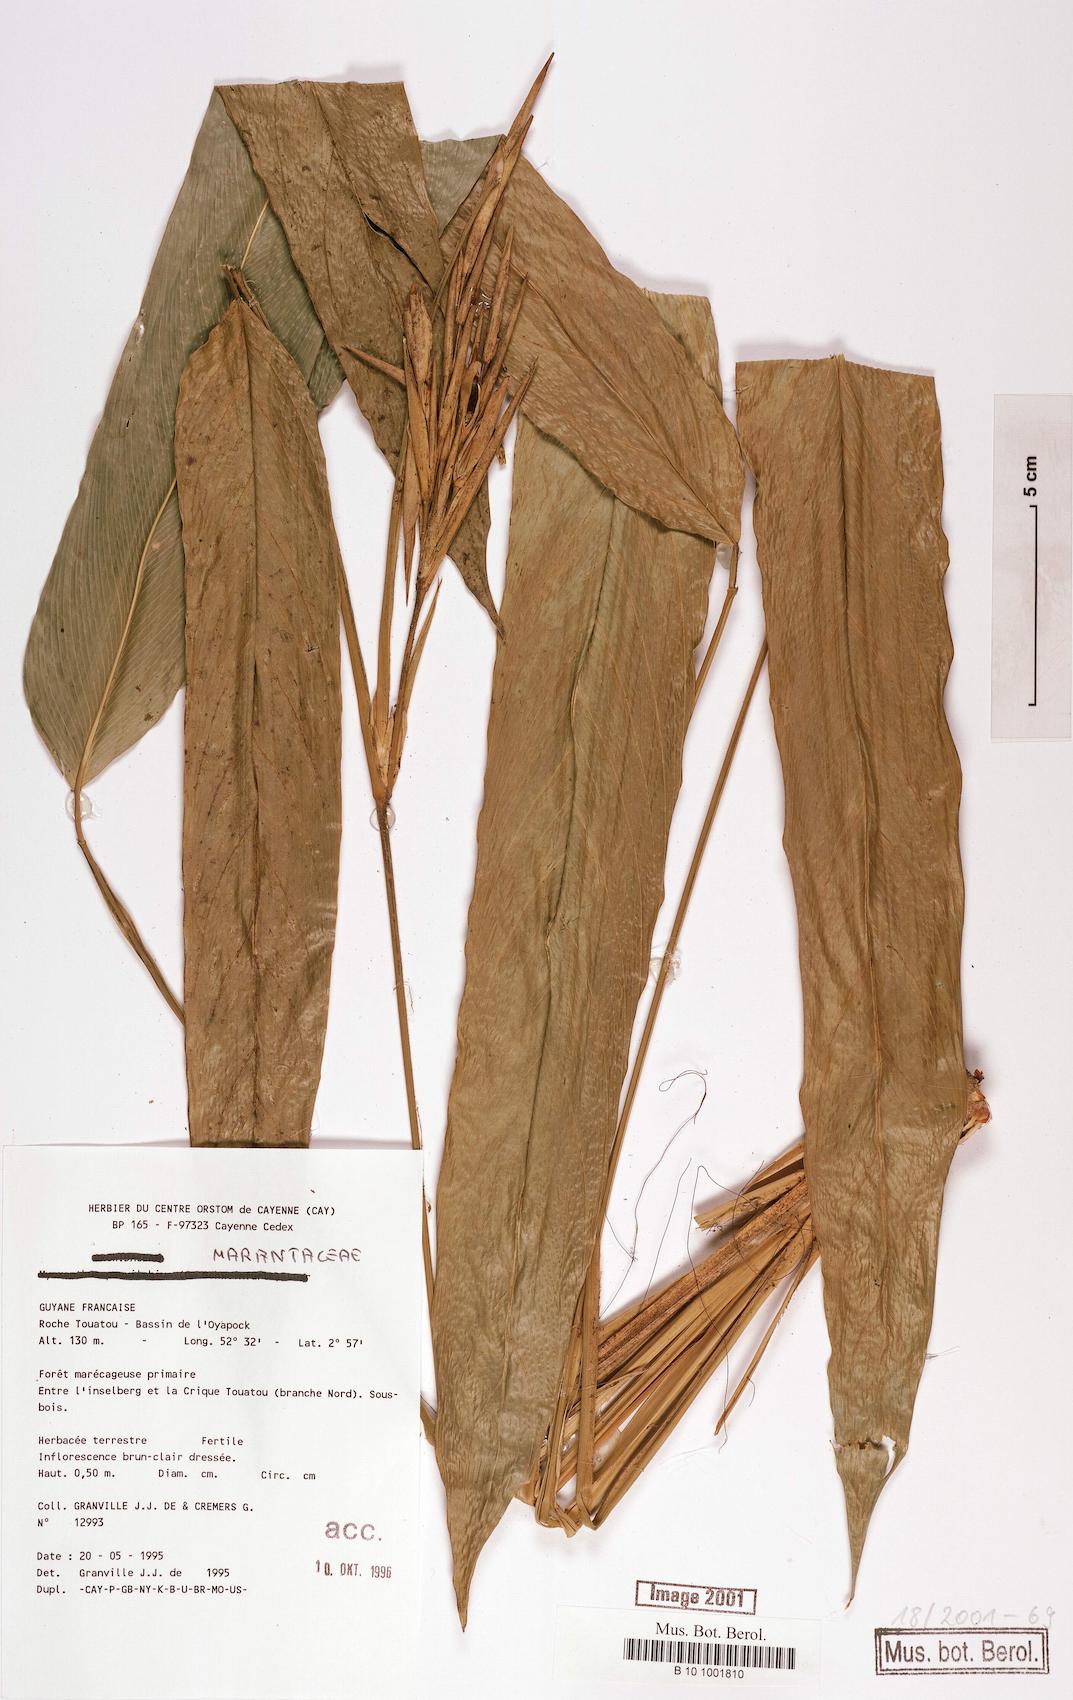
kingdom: Plantae
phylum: Tracheophyta
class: Magnoliopsida
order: Fabales
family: Fabaceae
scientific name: Fabaceae
